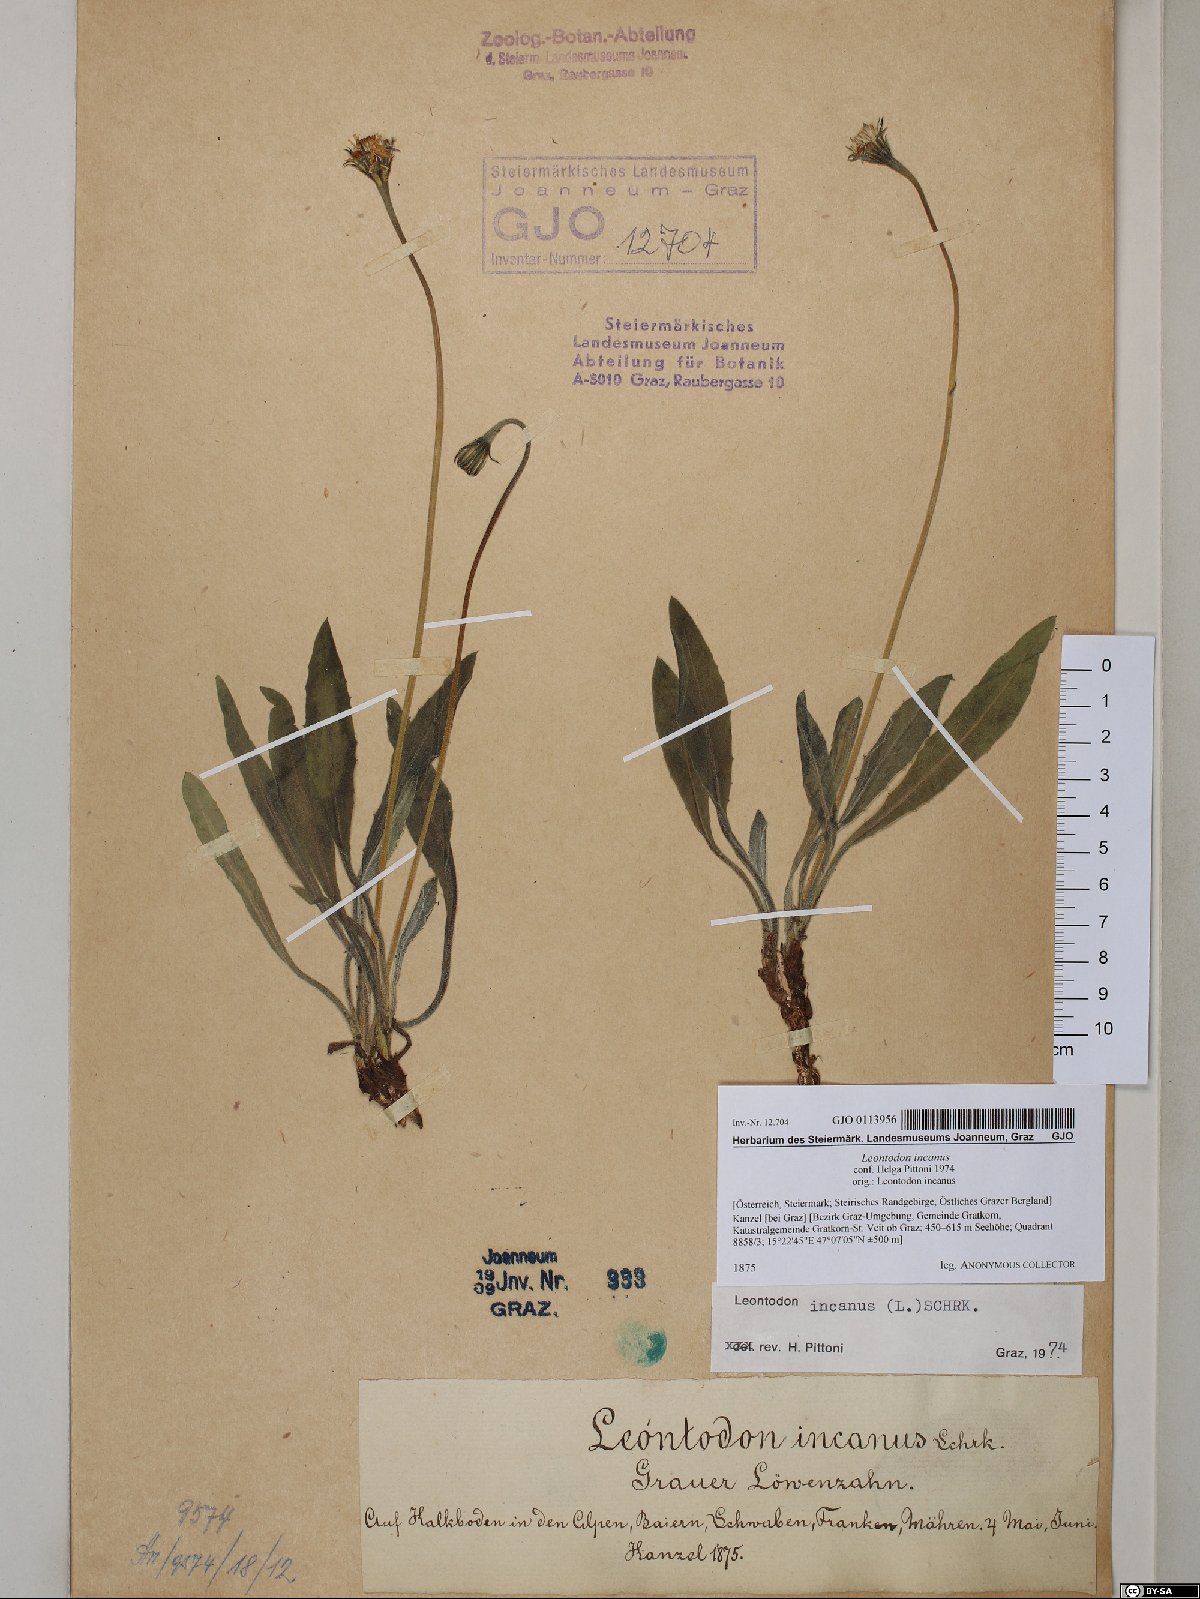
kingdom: Plantae
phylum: Tracheophyta
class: Magnoliopsida
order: Asterales
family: Asteraceae
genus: Leontodon
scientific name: Leontodon incanus
